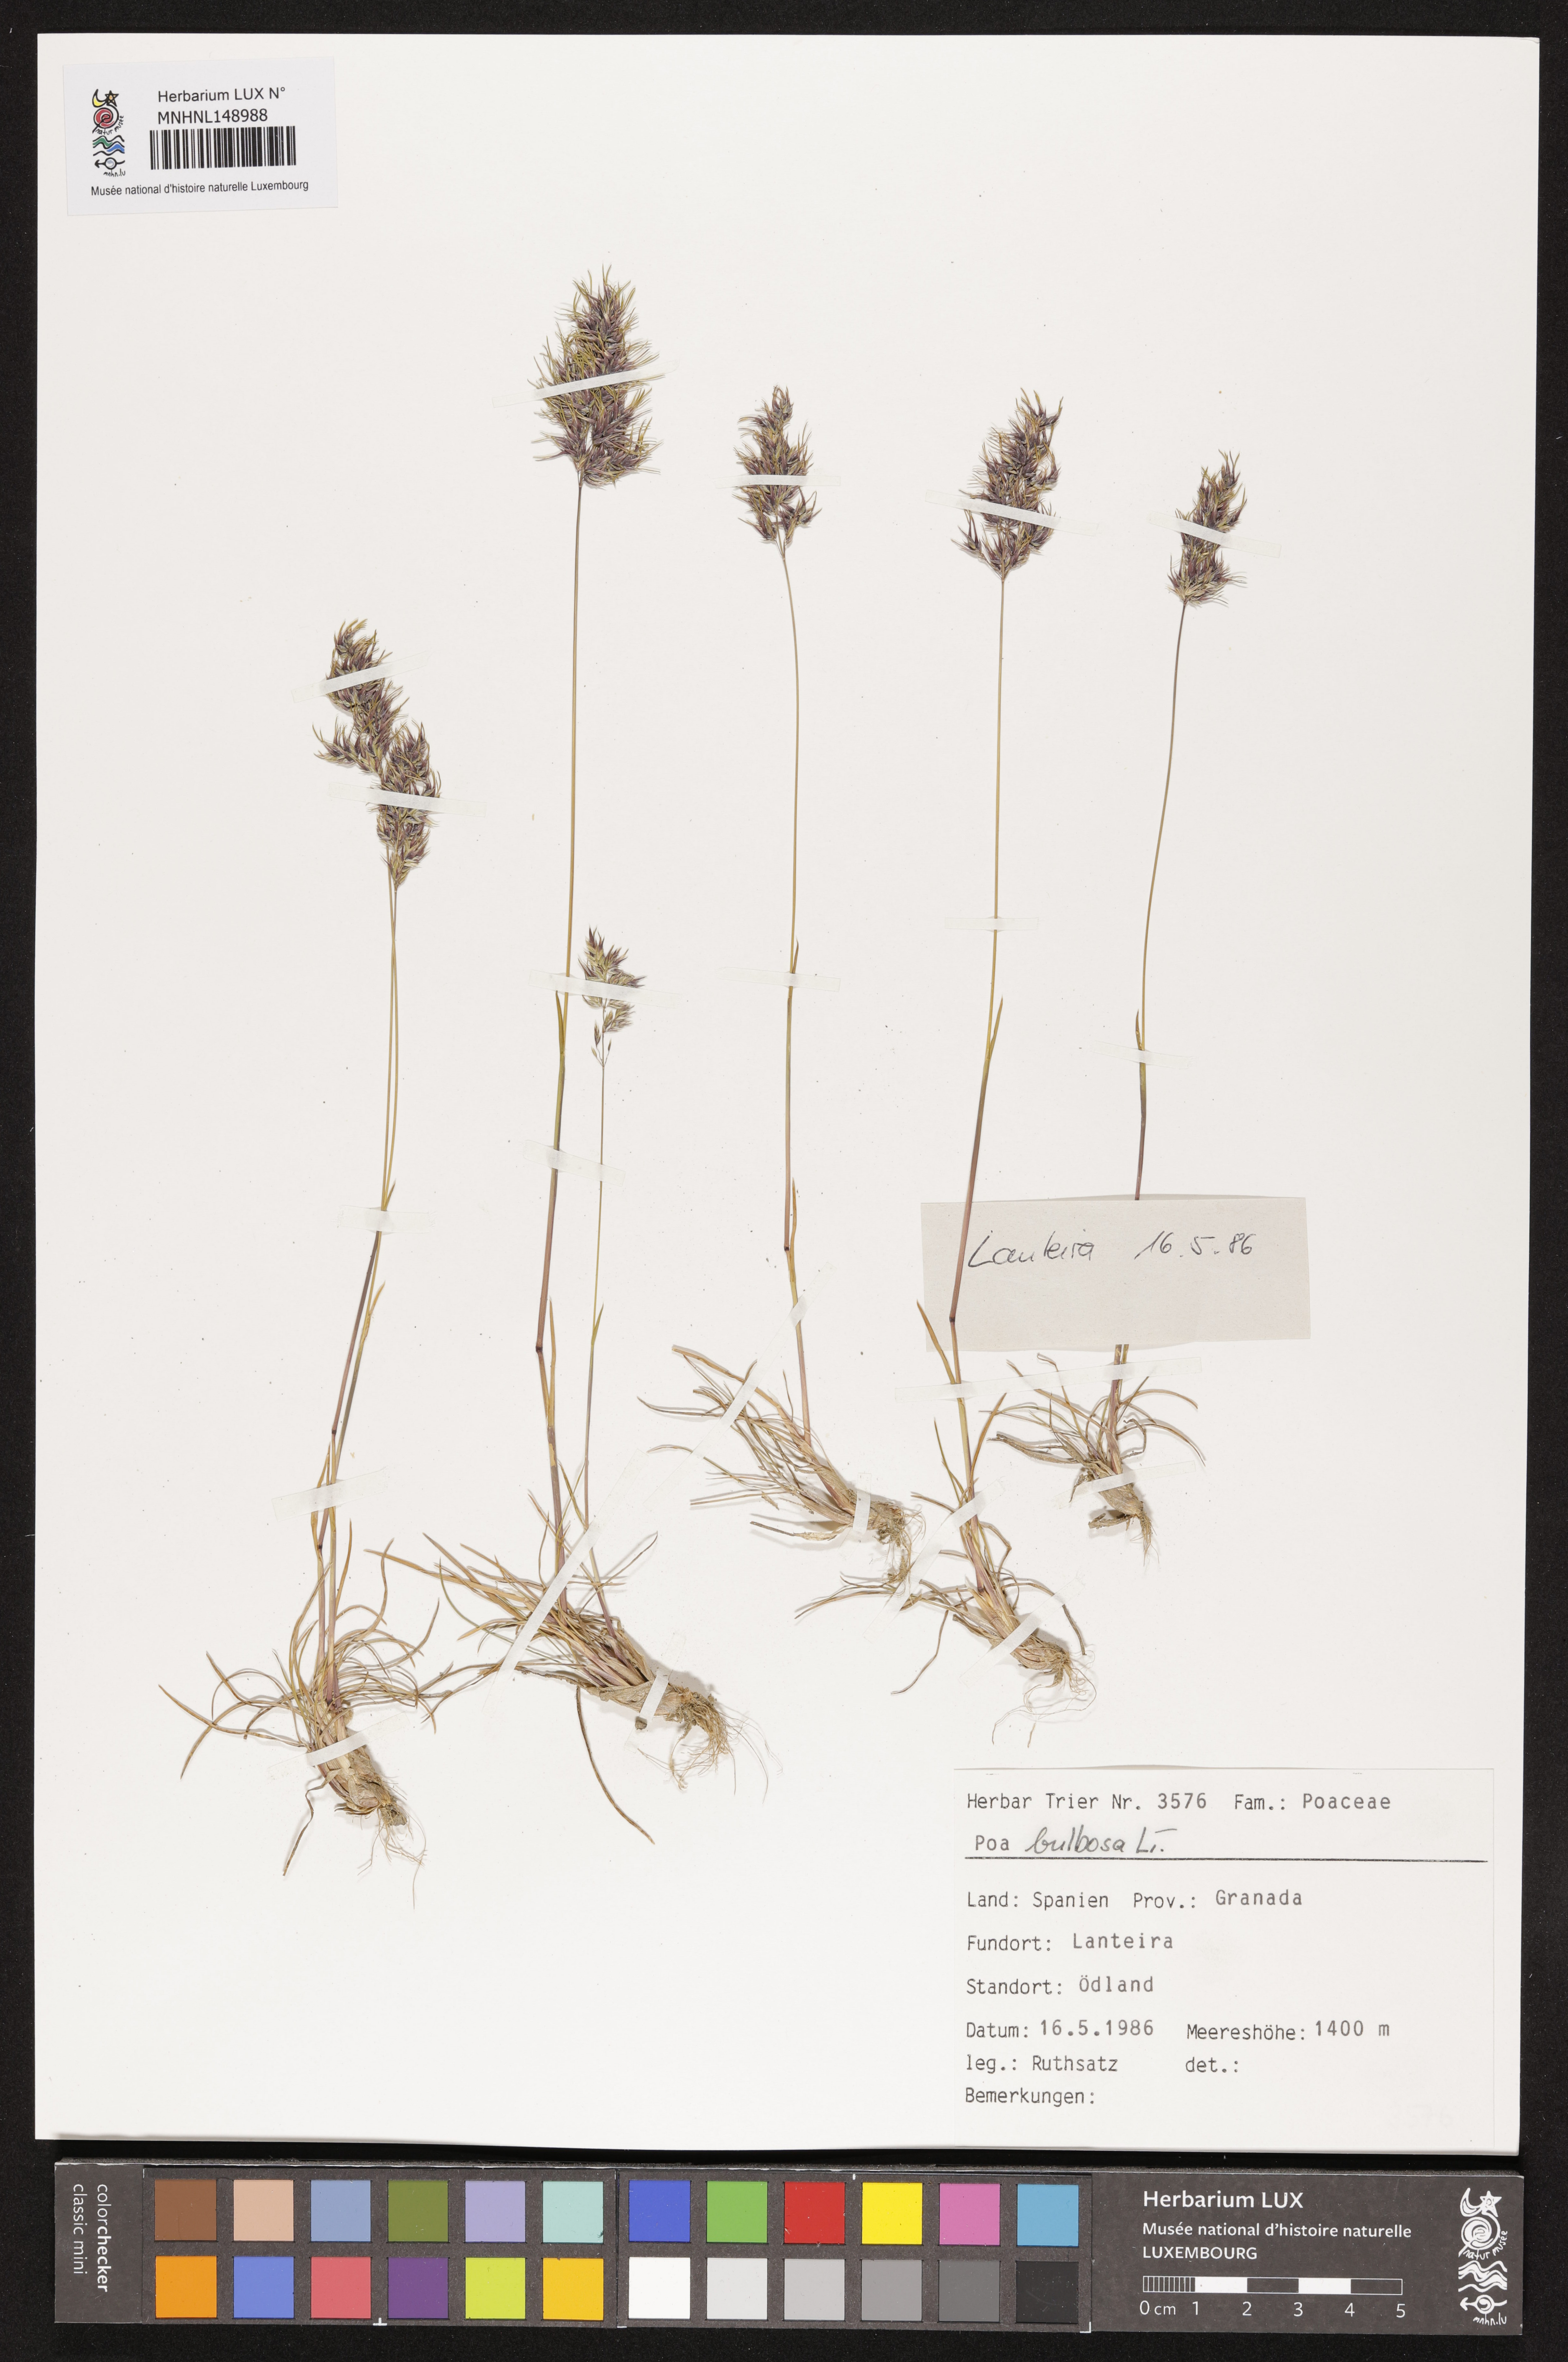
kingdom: Plantae
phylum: Tracheophyta
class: Liliopsida
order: Poales
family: Poaceae
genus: Poa
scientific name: Poa bulbosa
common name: Bulbous bluegrass
